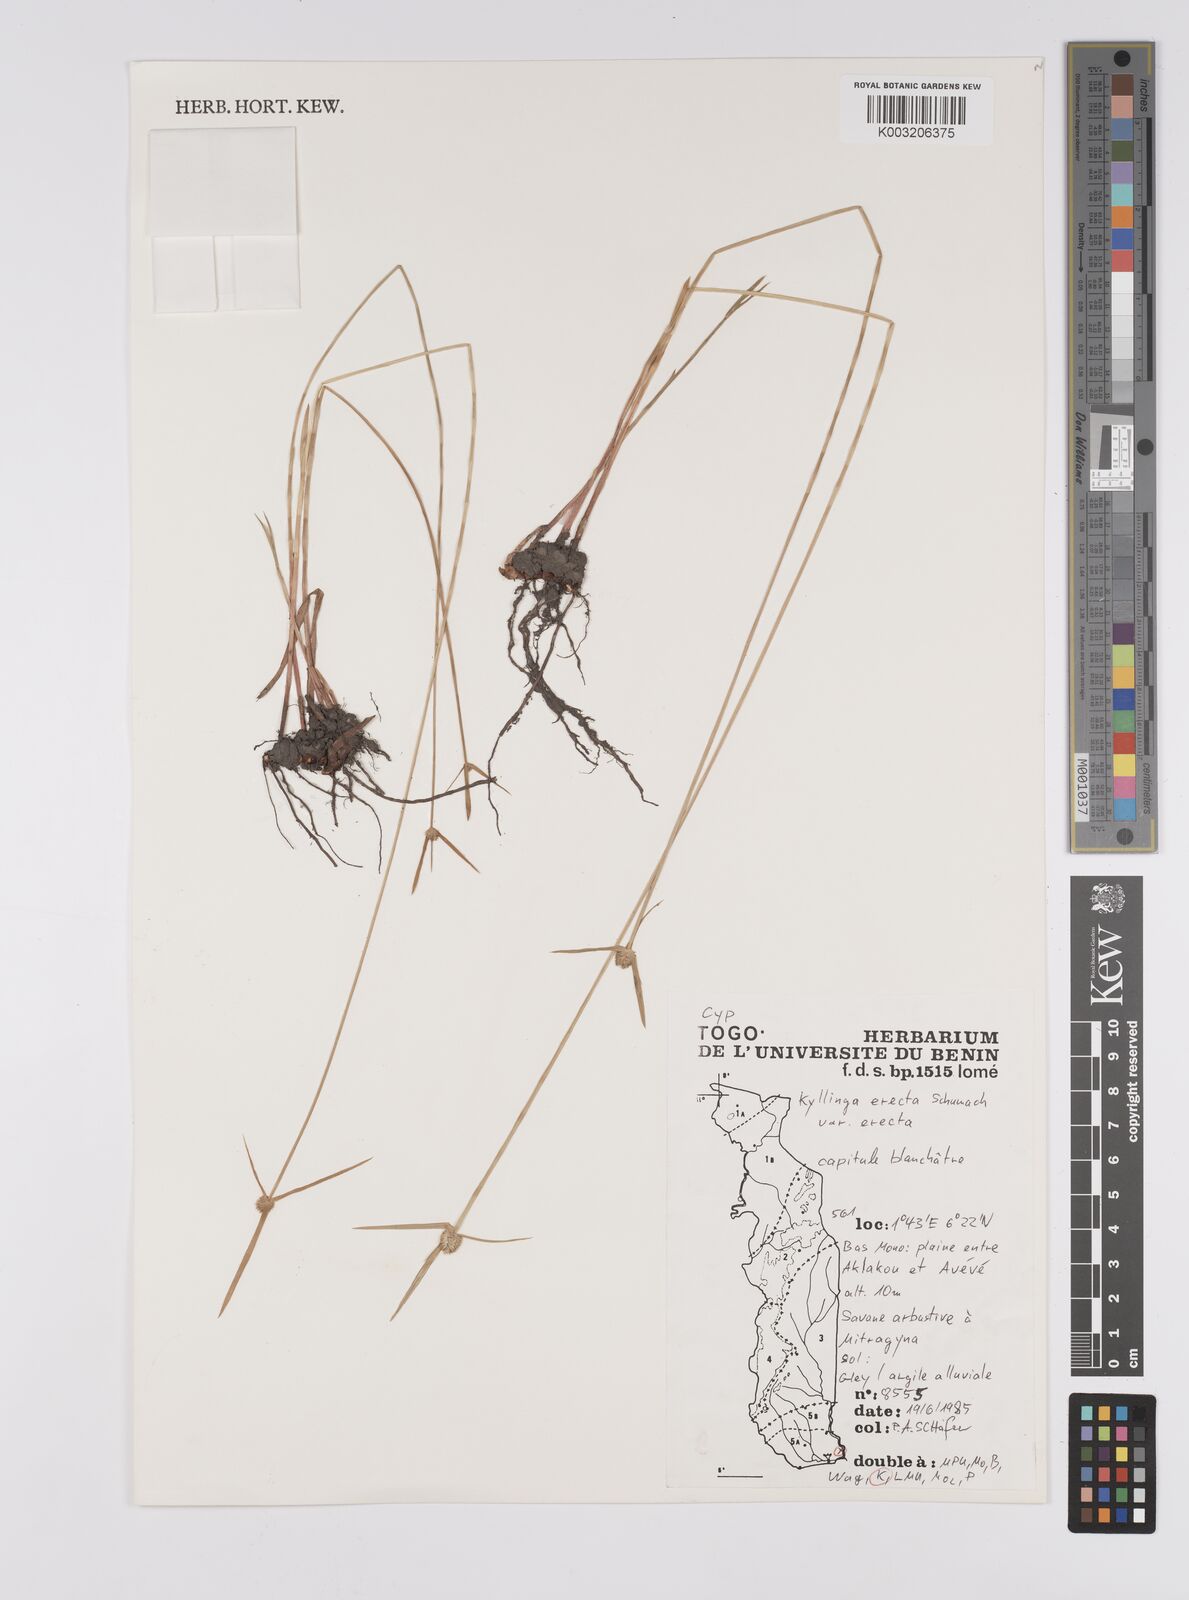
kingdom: Plantae
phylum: Tracheophyta
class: Liliopsida
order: Poales
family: Cyperaceae
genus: Cyperus
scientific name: Cyperus erectus
